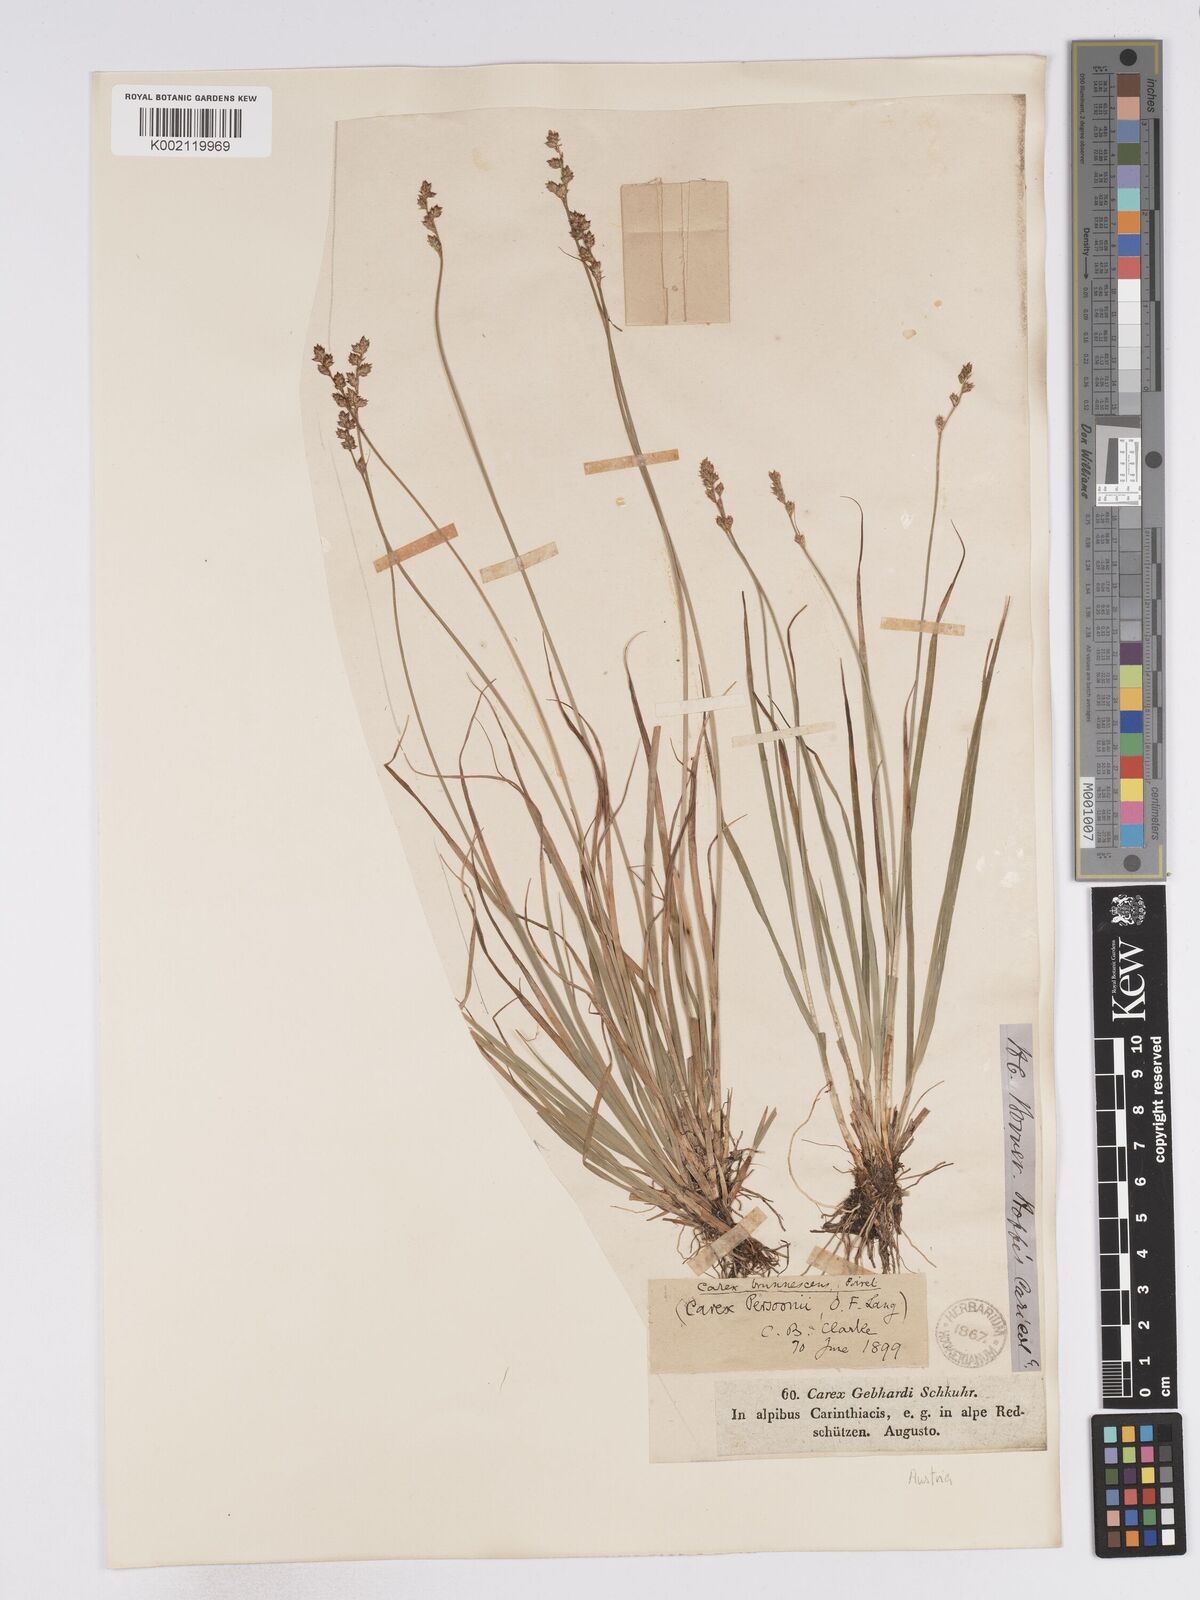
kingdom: Plantae
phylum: Tracheophyta
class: Liliopsida
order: Poales
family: Cyperaceae
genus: Carex
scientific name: Carex canescens
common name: White sedge
